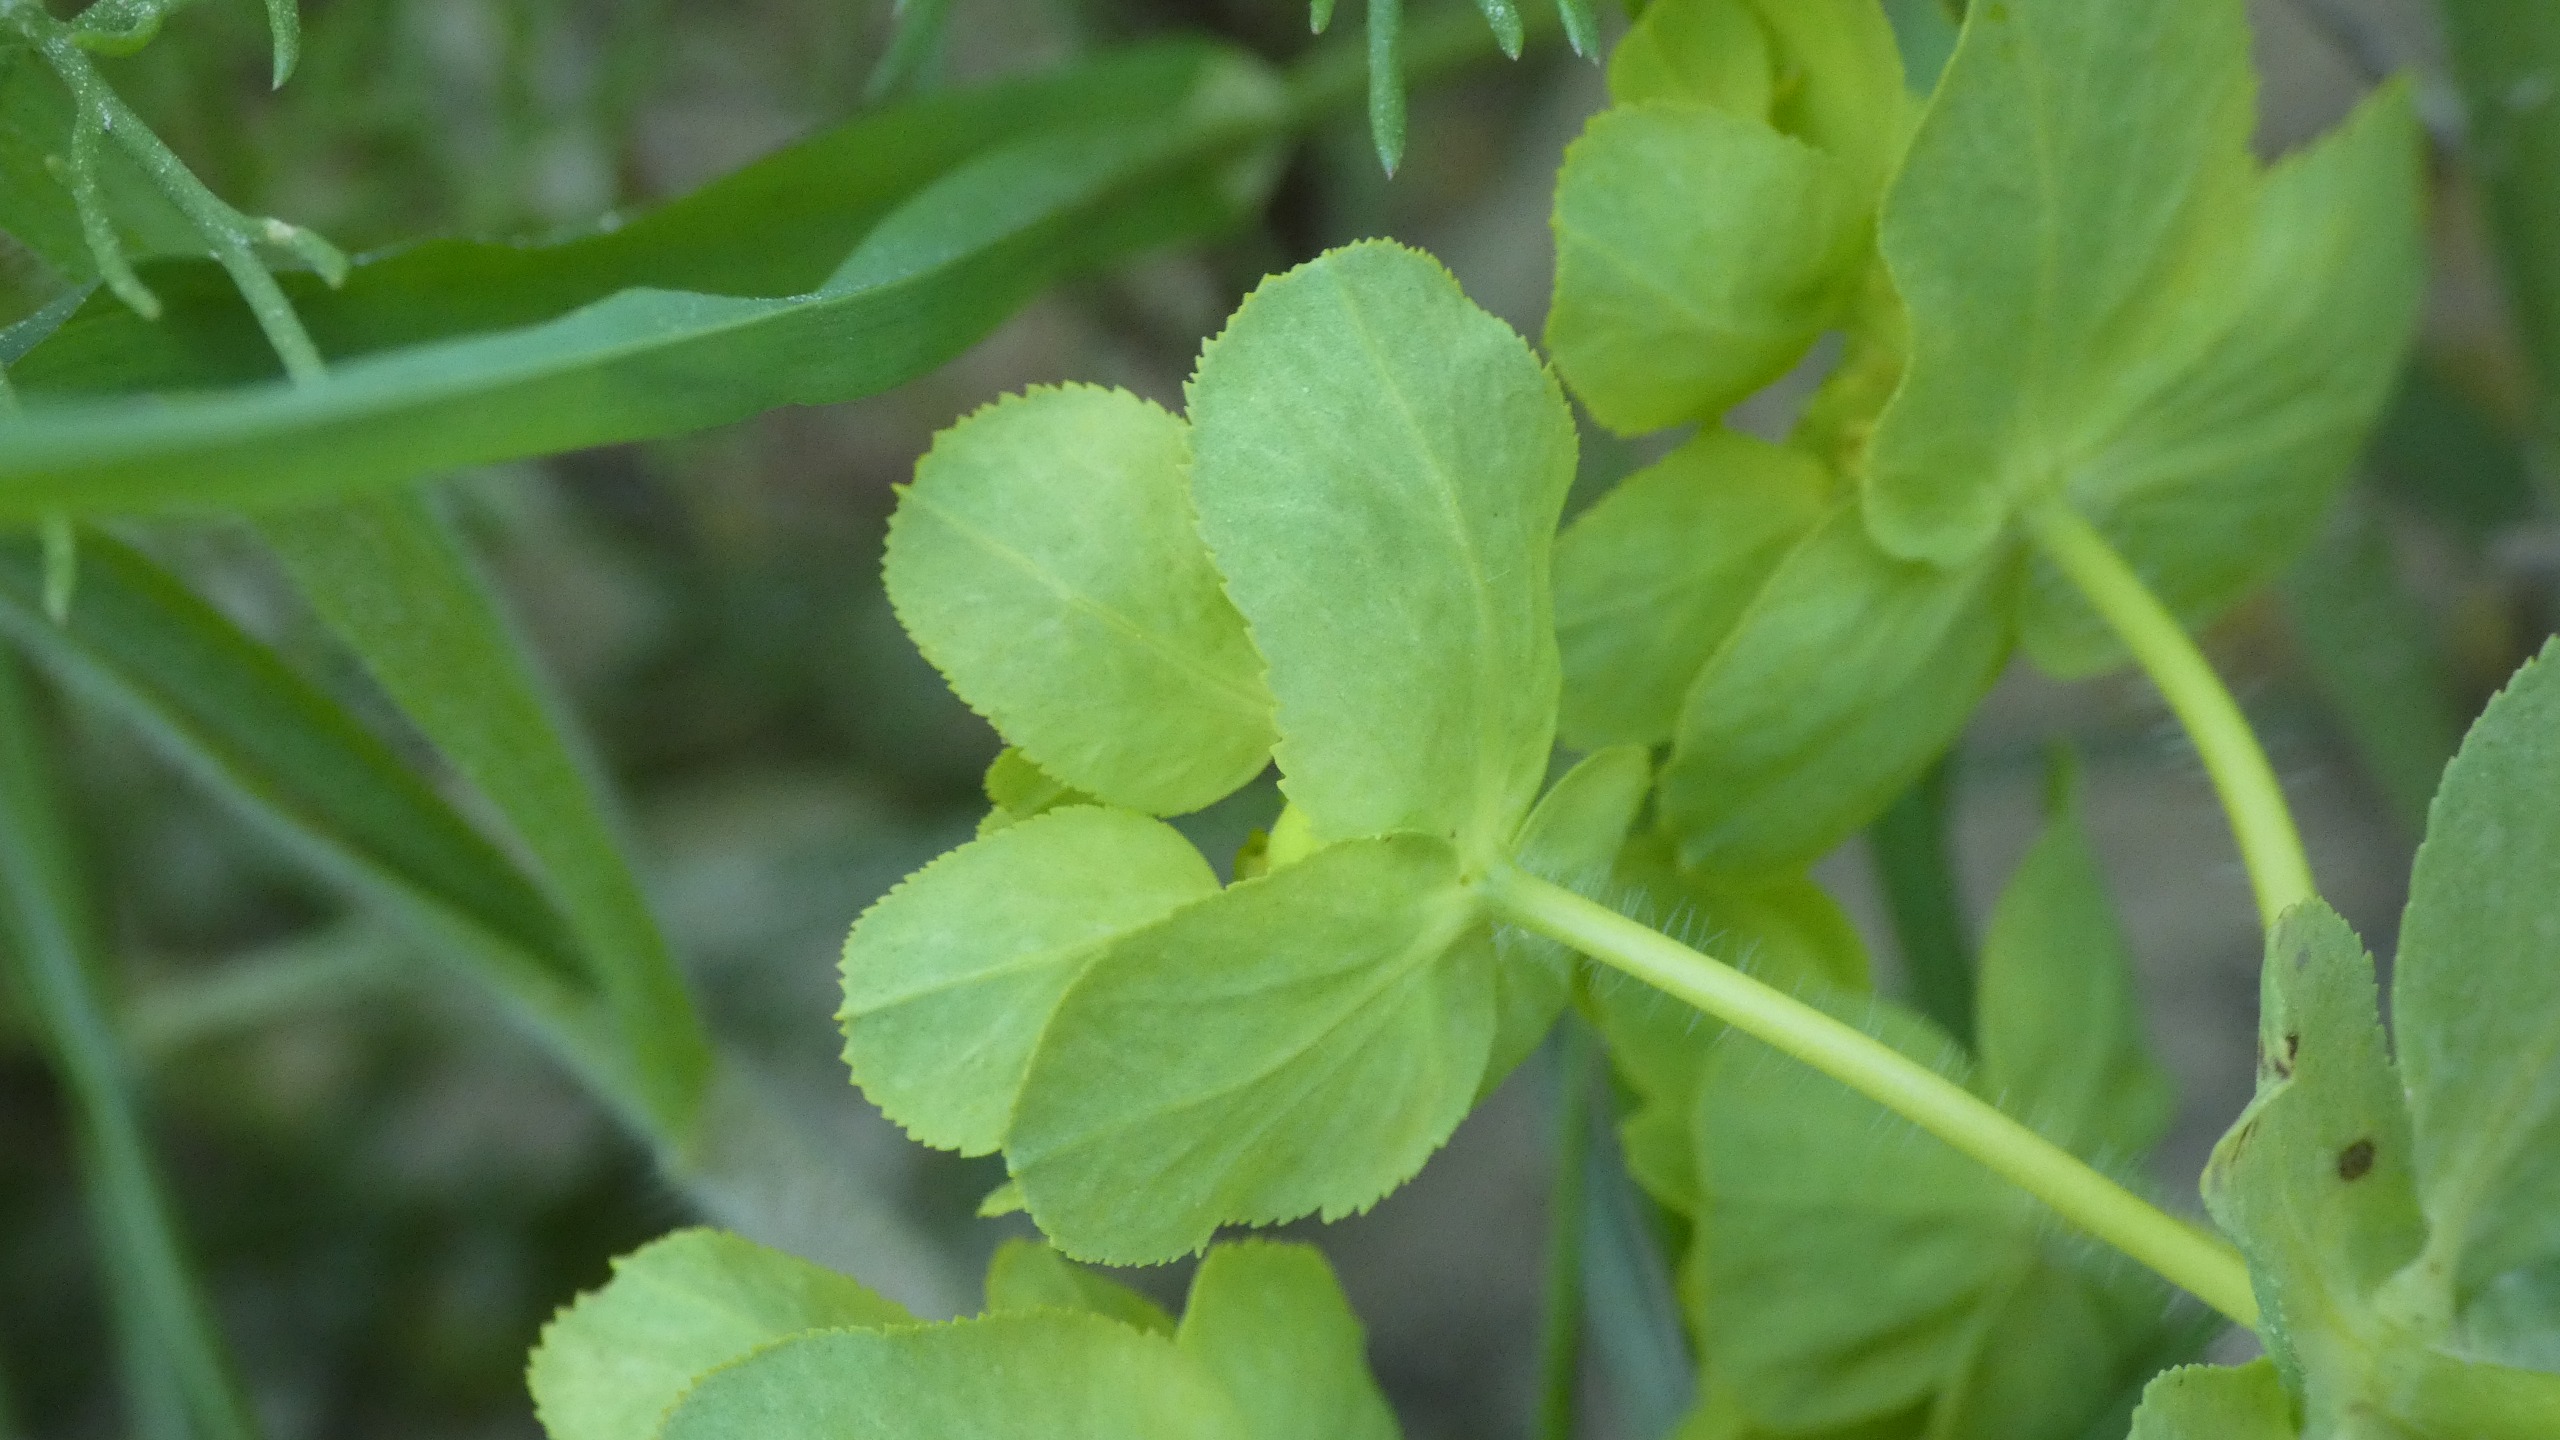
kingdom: Plantae
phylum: Tracheophyta
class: Magnoliopsida
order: Malpighiales
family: Euphorbiaceae
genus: Euphorbia
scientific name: Euphorbia helioscopia
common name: Skærm-vortemælk
